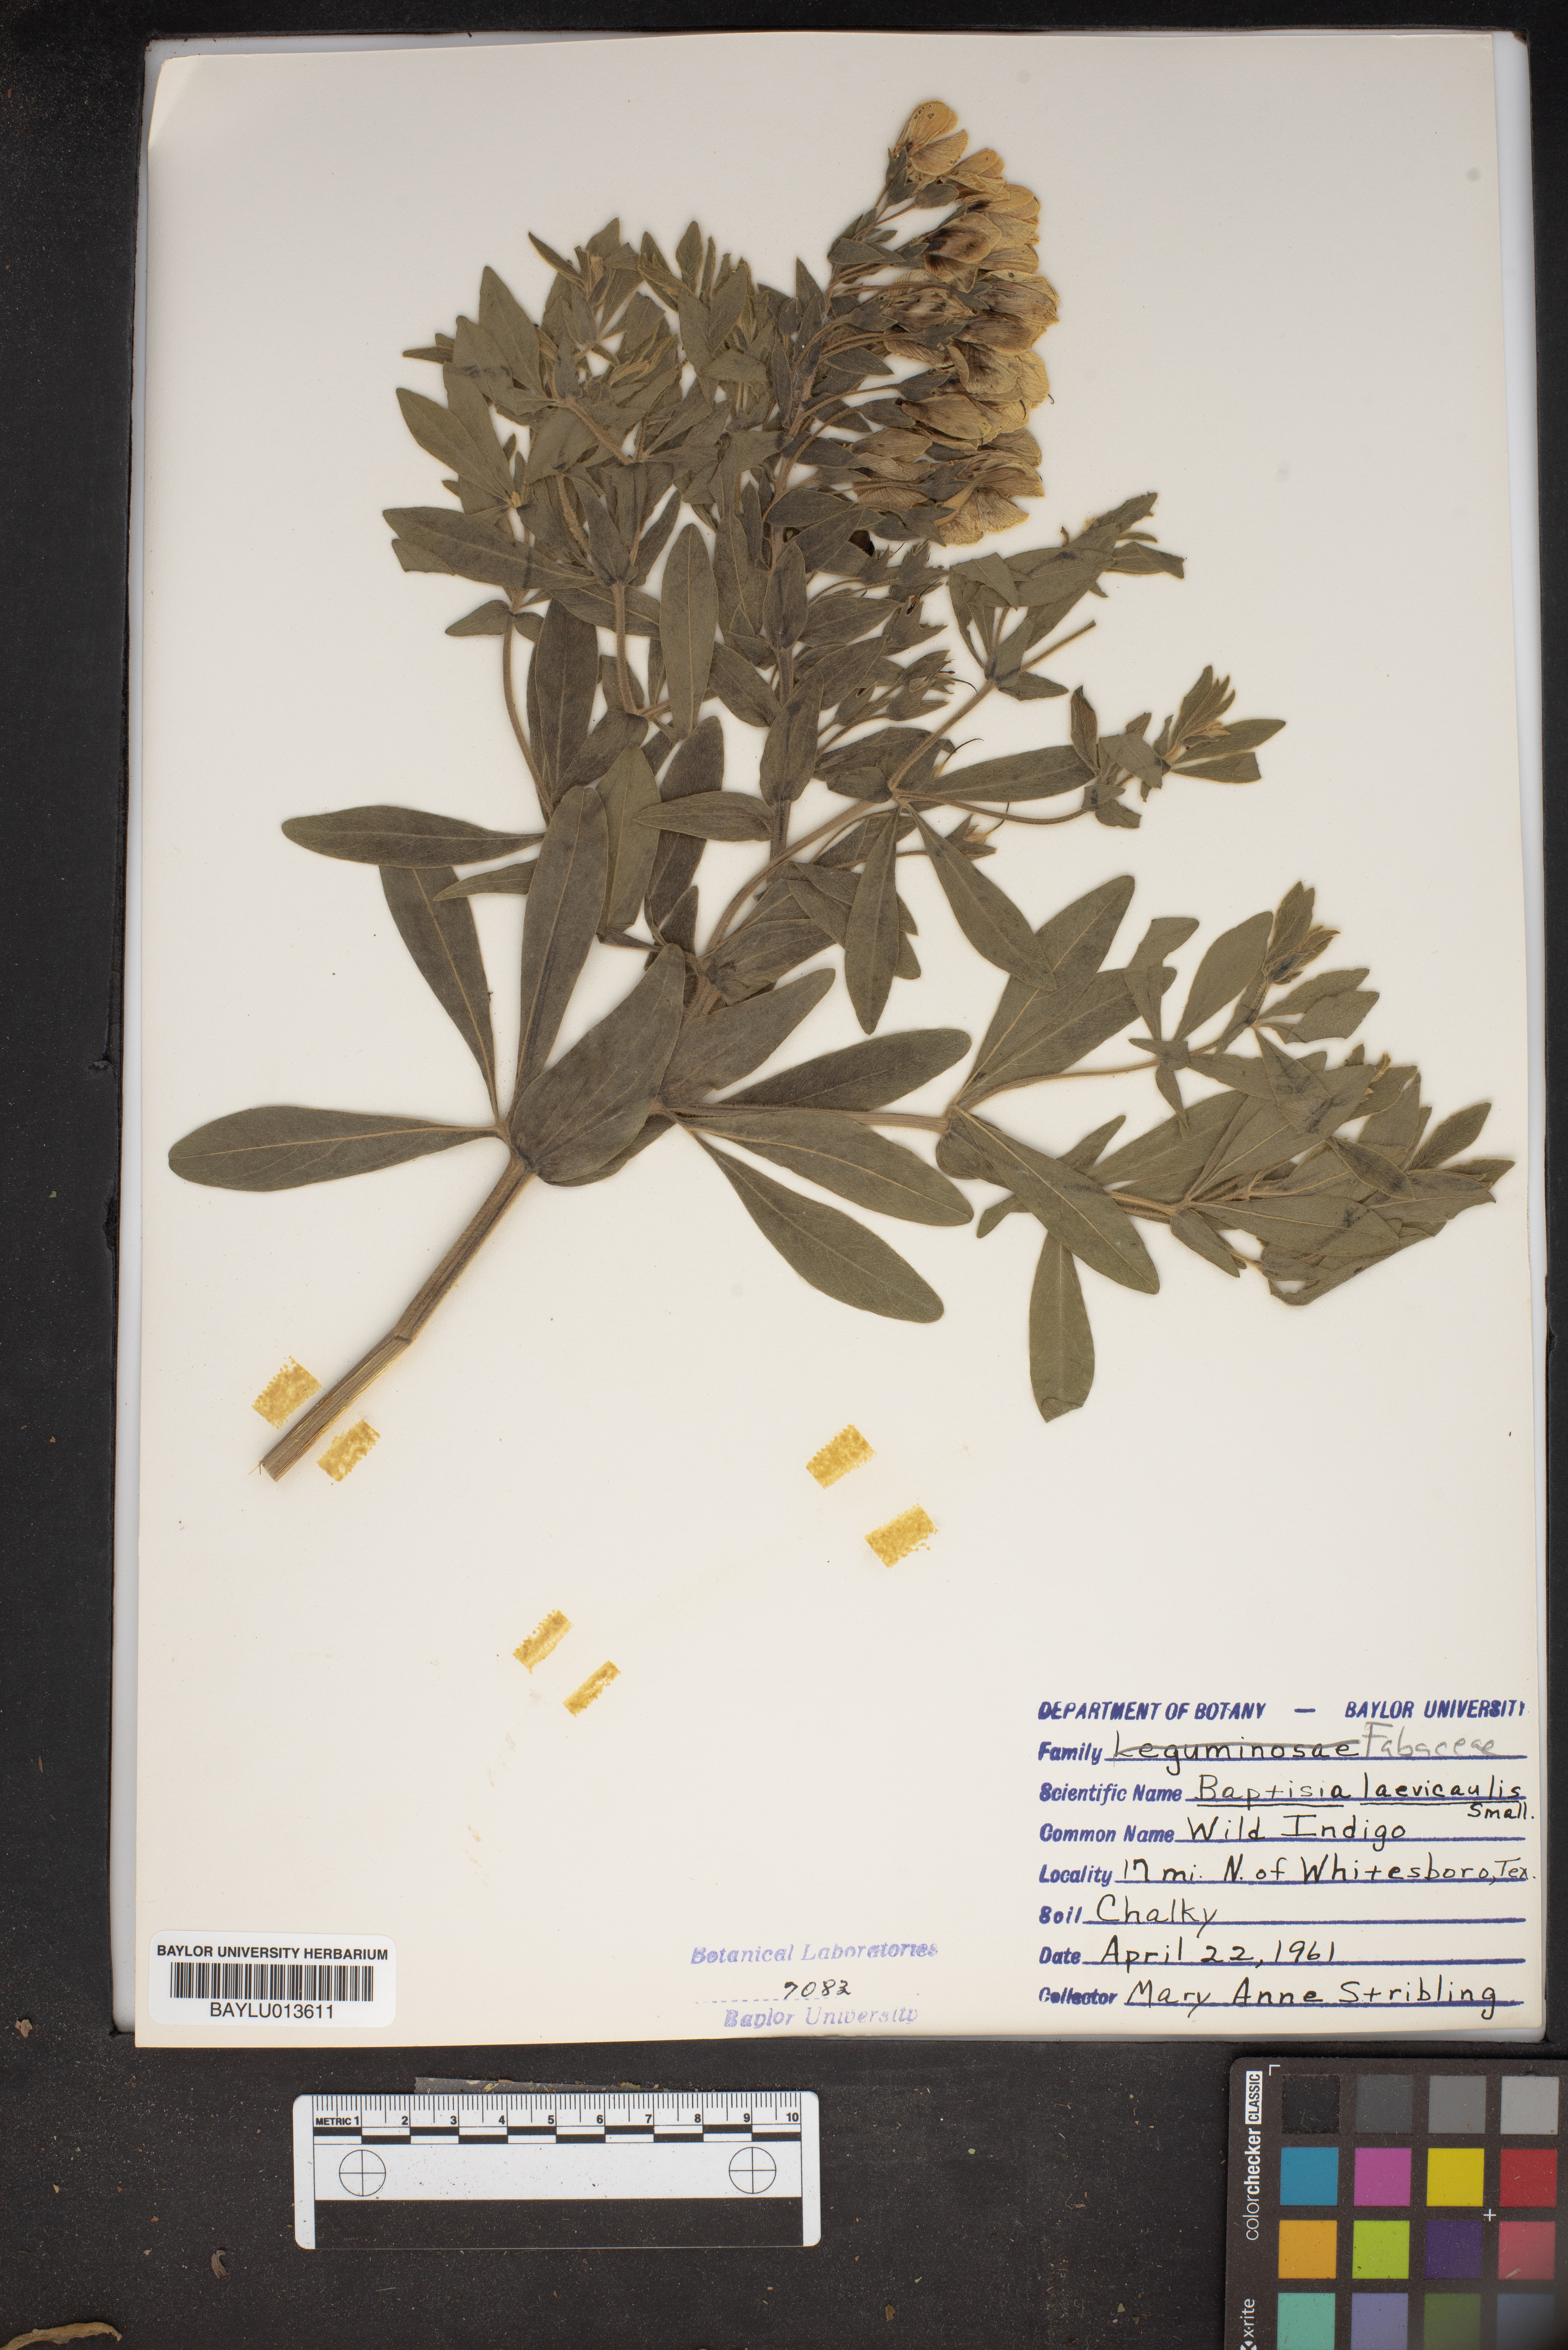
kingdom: Plantae
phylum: Tracheophyta
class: Magnoliopsida
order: Fabales
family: Fabaceae
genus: Baptisia
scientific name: Baptisia bracteata
